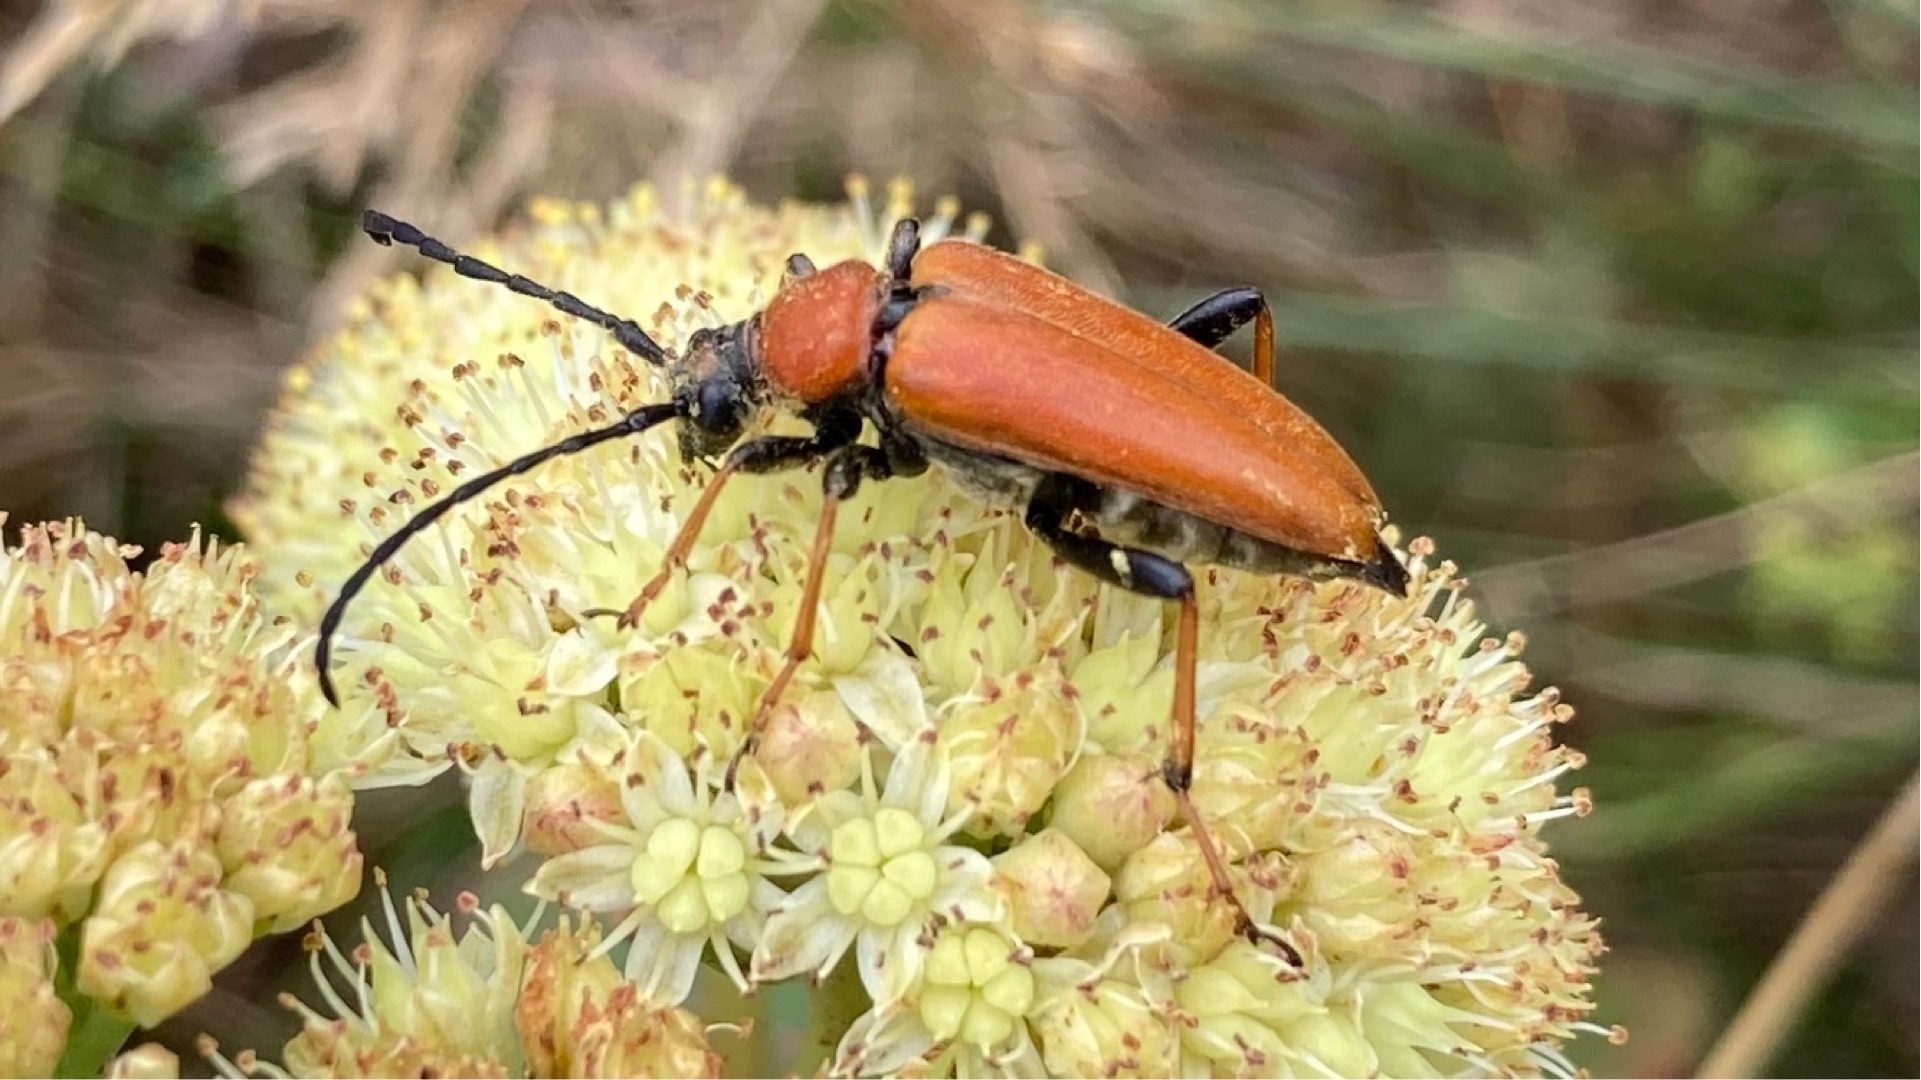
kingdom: Animalia
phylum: Arthropoda
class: Insecta
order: Coleoptera
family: Cerambycidae
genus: Stictoleptura
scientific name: Stictoleptura rubra
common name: Rød blomsterbuk
